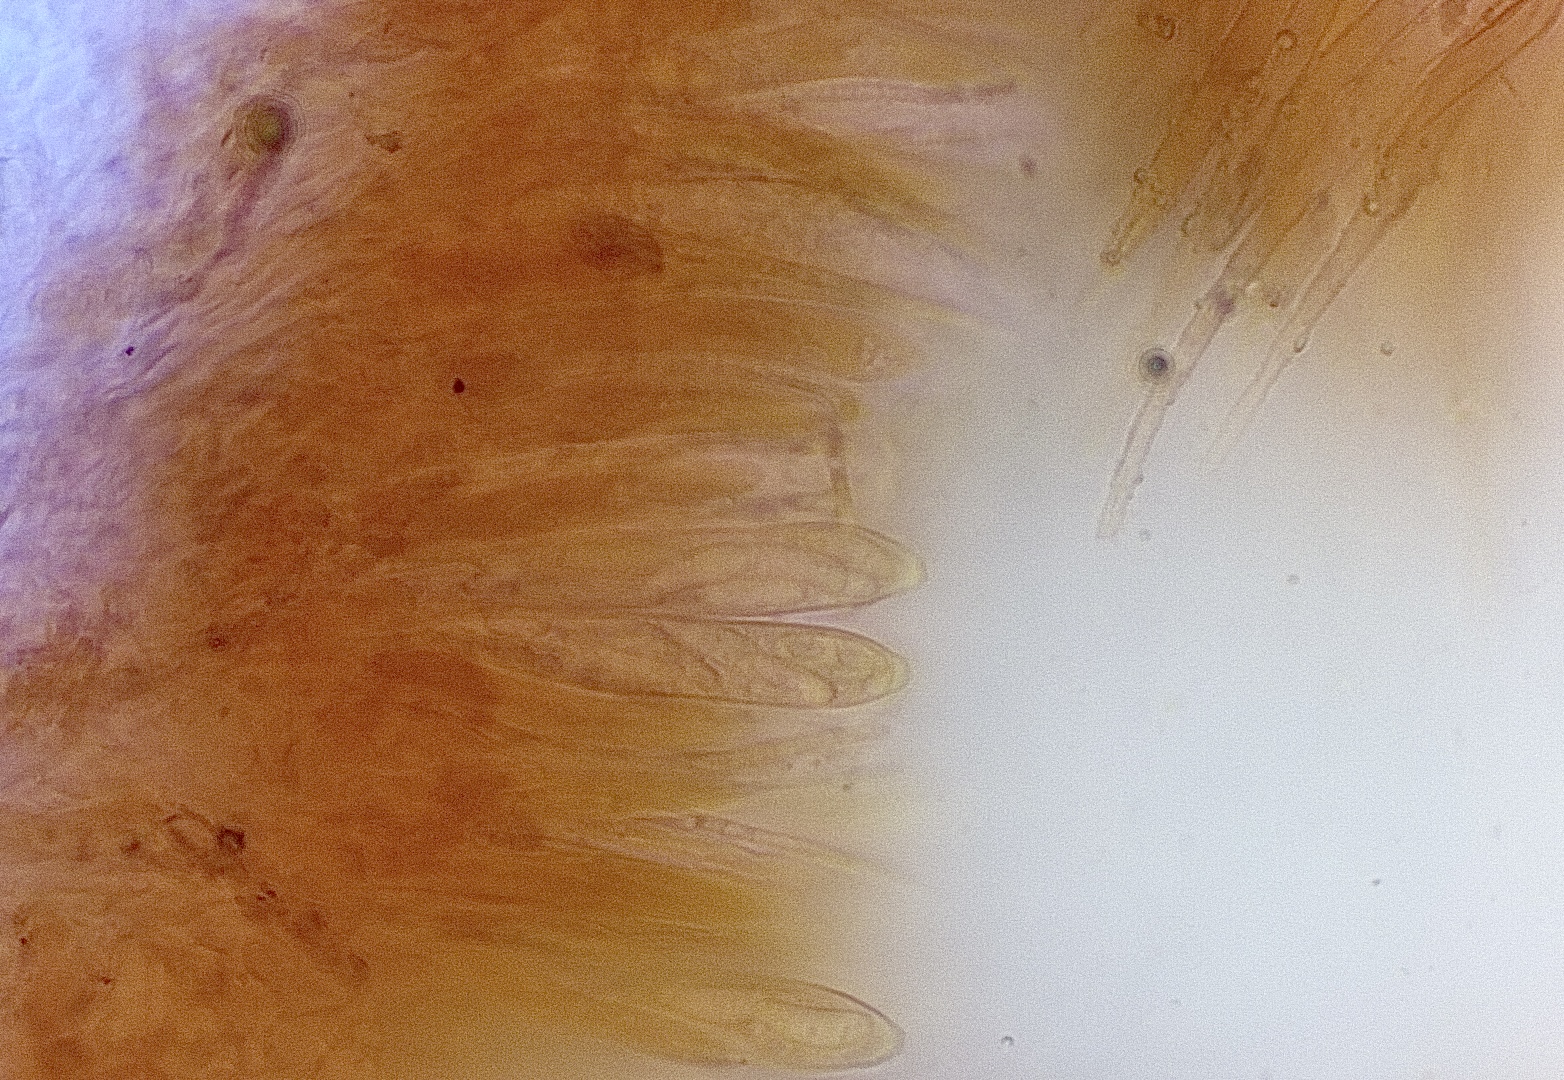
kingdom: Fungi
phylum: Ascomycota
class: Leotiomycetes
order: Helotiales
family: Hyaloscyphaceae
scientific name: Hyaloscyphaceae
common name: frynseskivefamilien
